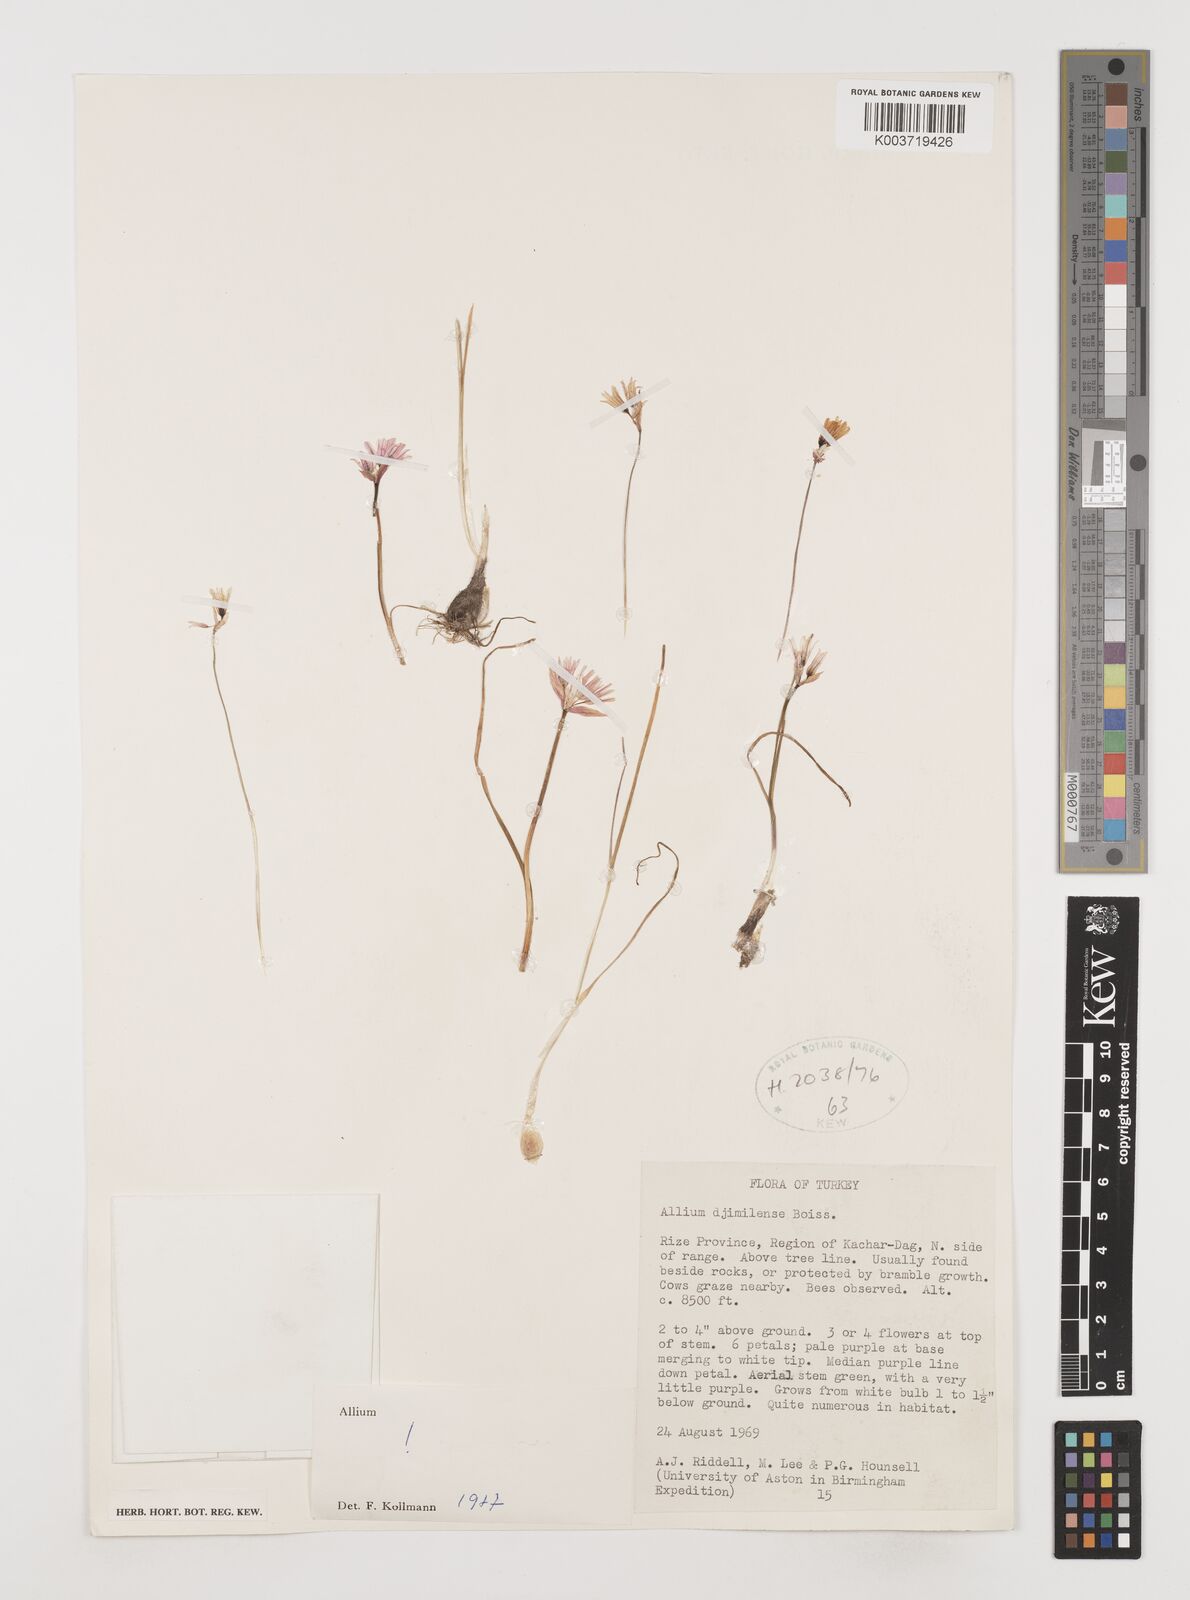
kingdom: Plantae
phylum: Tracheophyta
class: Liliopsida
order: Asparagales
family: Amaryllidaceae
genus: Allium
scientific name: Allium djimilense
